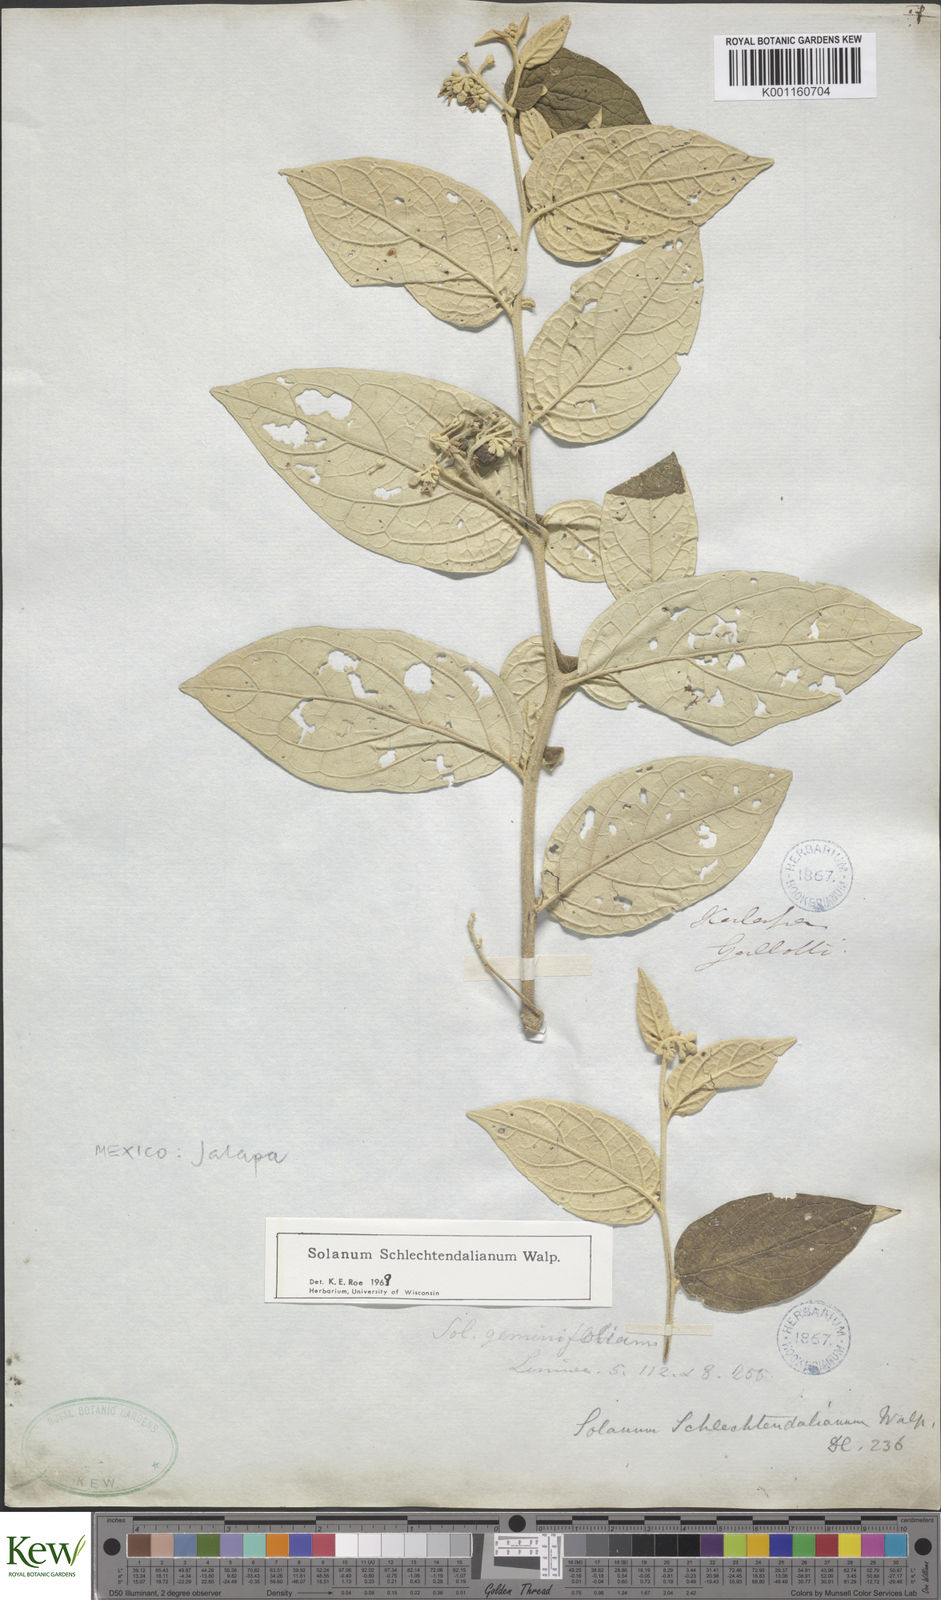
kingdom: Plantae
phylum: Tracheophyta
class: Magnoliopsida
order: Solanales
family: Solanaceae
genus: Solanum
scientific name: Solanum schlechtendalianum
